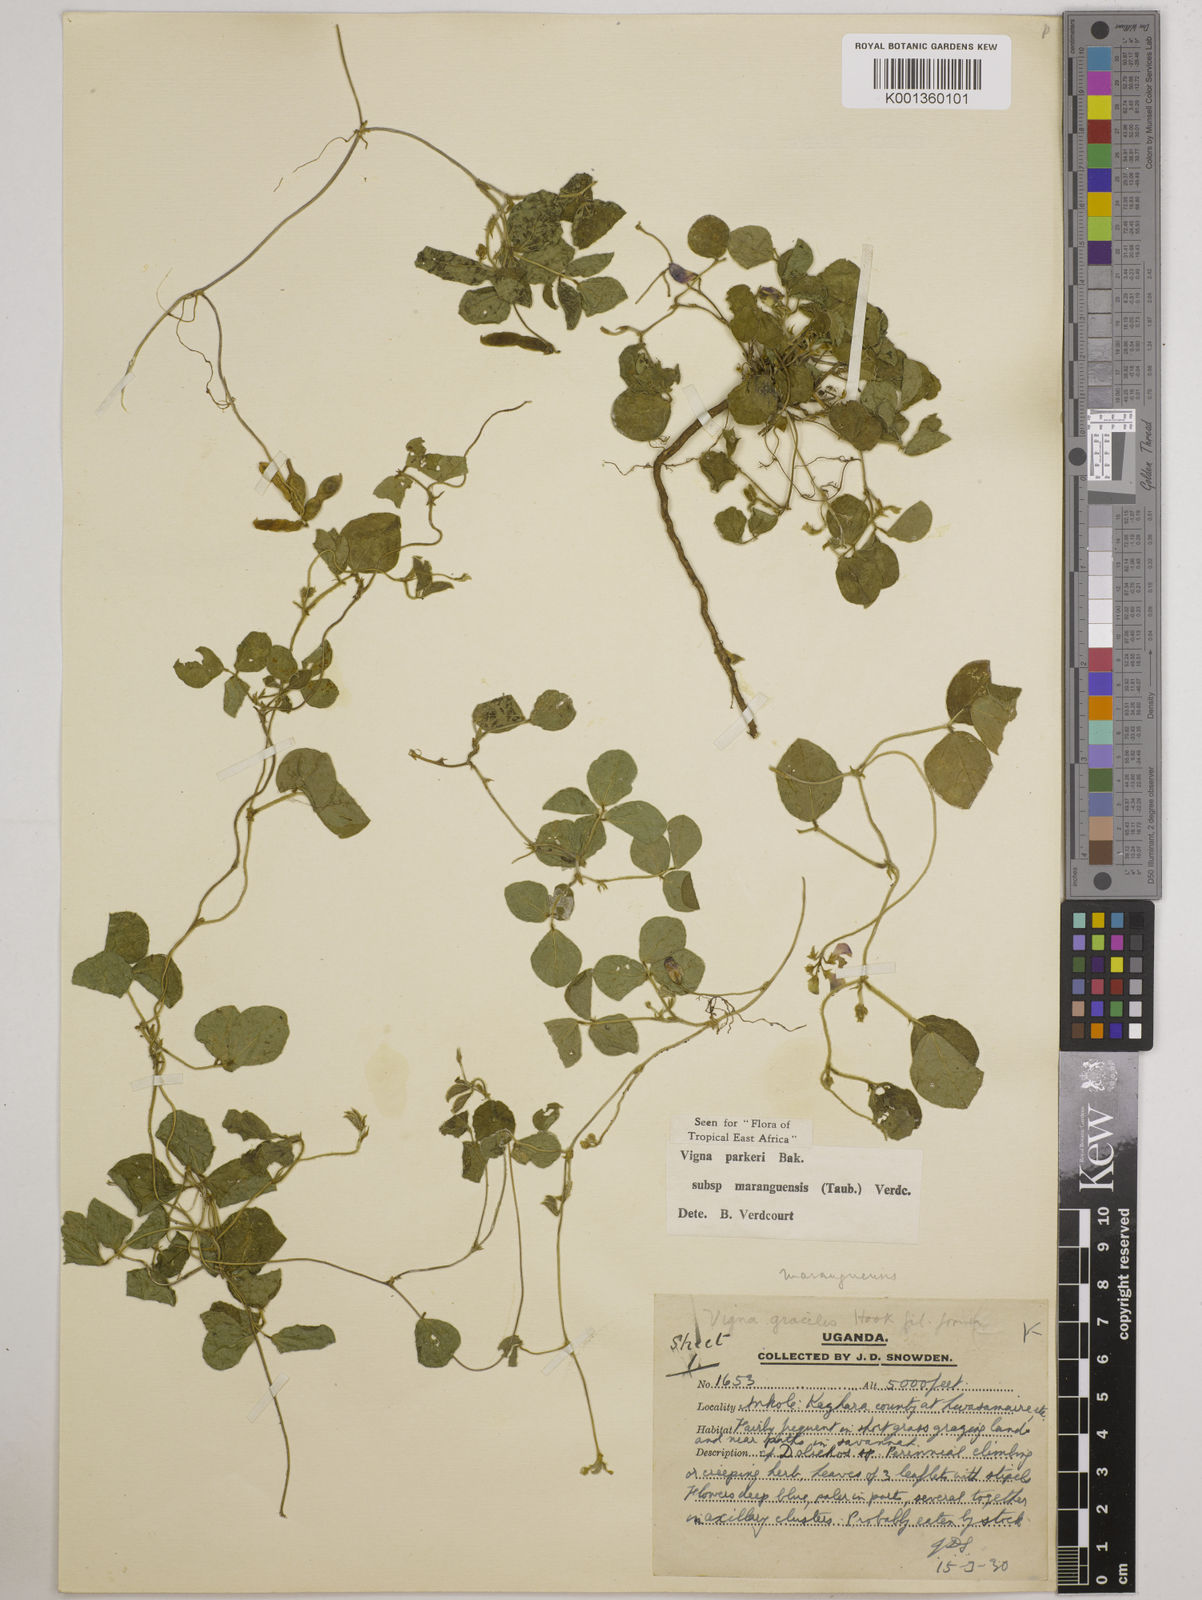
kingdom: Plantae
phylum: Tracheophyta
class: Magnoliopsida
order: Fabales
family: Fabaceae
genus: Vigna
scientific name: Vigna parkeri
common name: Creeping vigna
